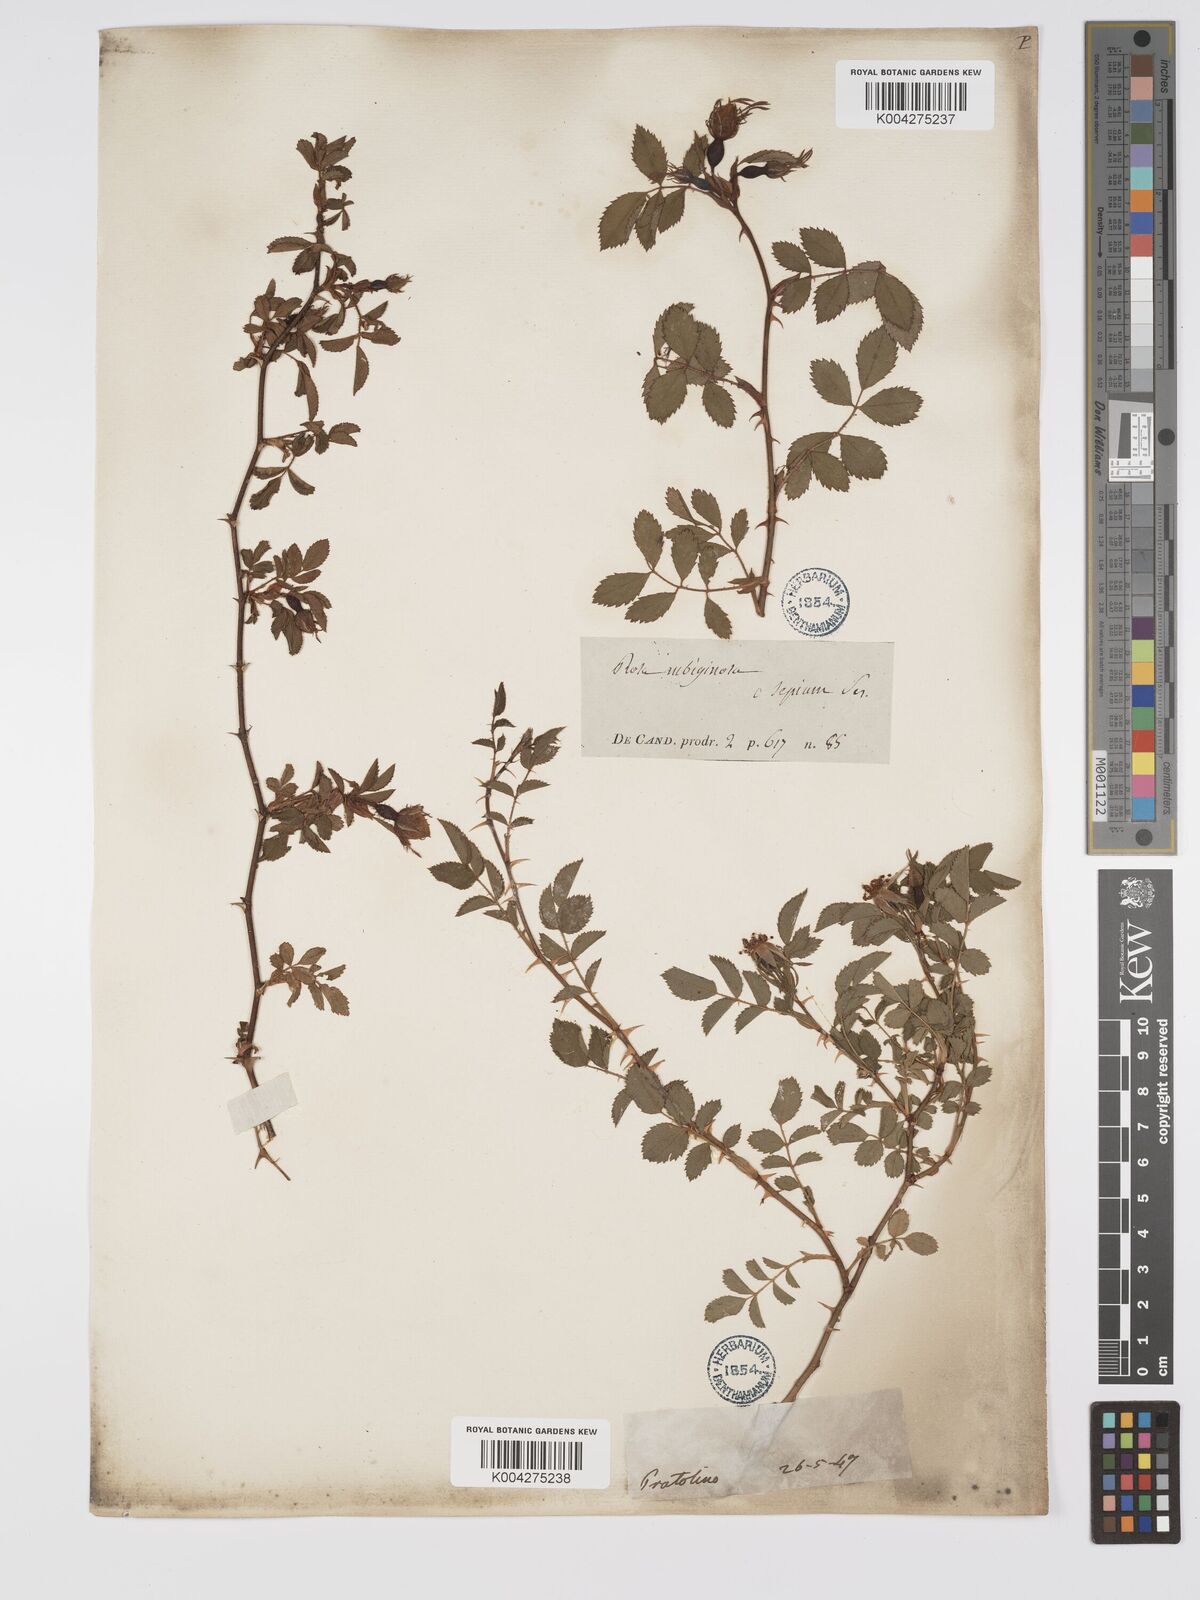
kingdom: Plantae
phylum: Tracheophyta
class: Magnoliopsida
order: Rosales
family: Rosaceae
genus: Rosa
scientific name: Rosa
